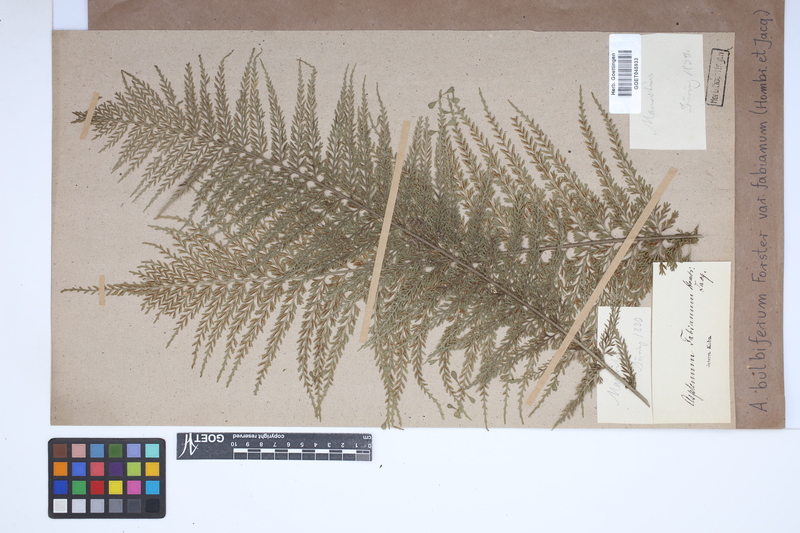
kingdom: Plantae
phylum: Tracheophyta
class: Polypodiopsida
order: Polypodiales
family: Aspleniaceae
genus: Asplenium
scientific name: Asplenium bulbiferum
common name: Mother fern
